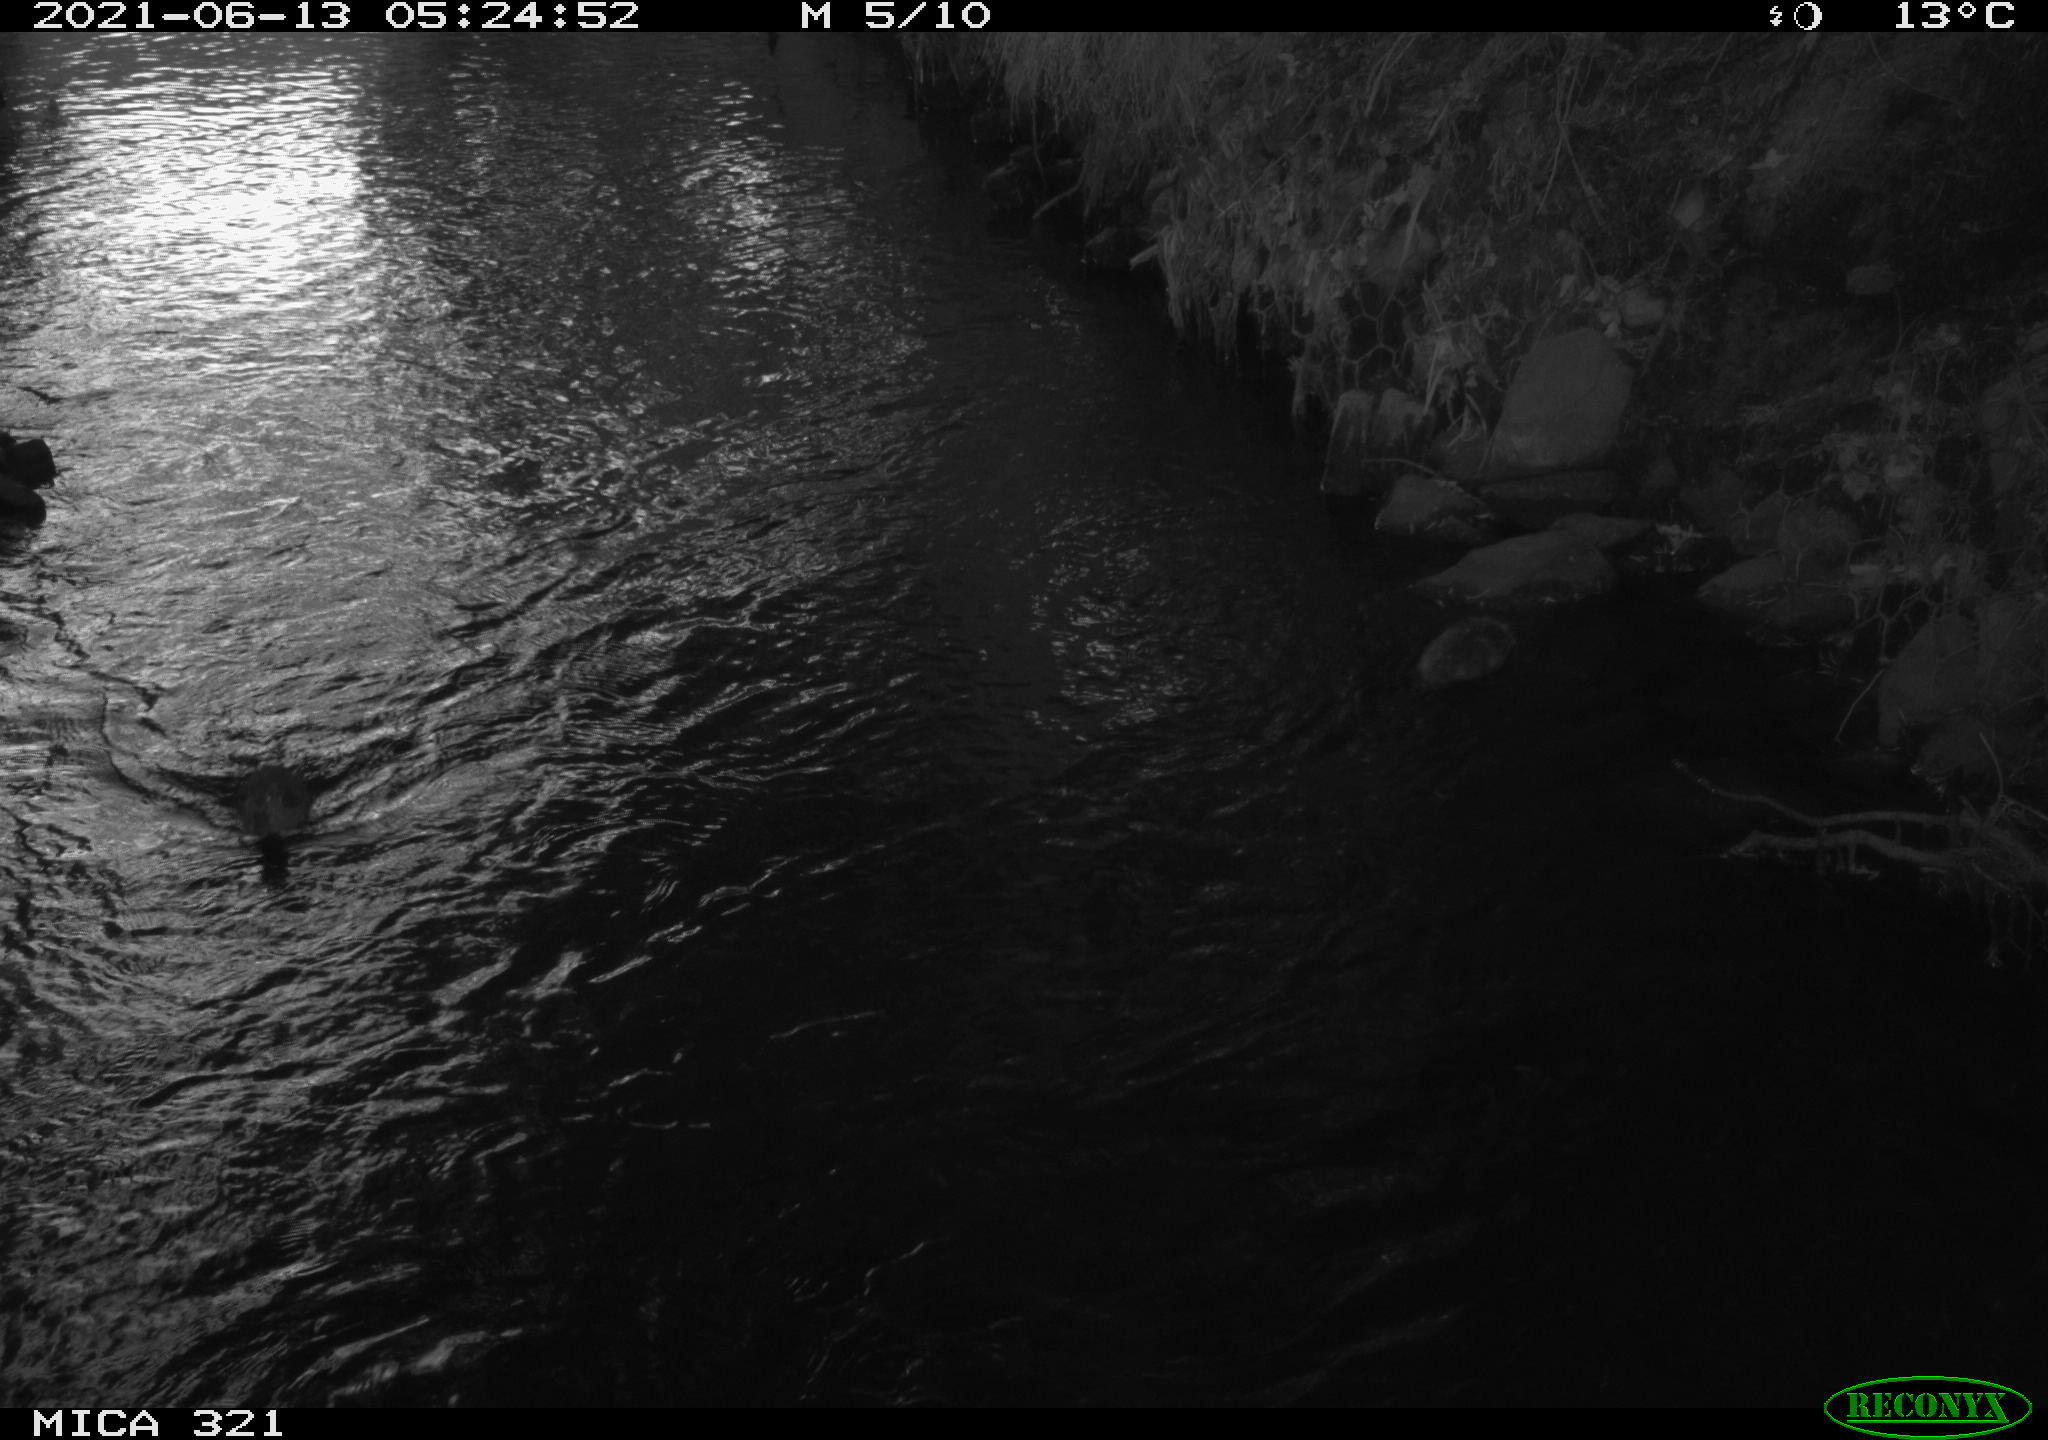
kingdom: Animalia
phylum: Chordata
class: Aves
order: Anseriformes
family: Anatidae
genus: Anas
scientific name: Anas platyrhynchos
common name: Mallard
